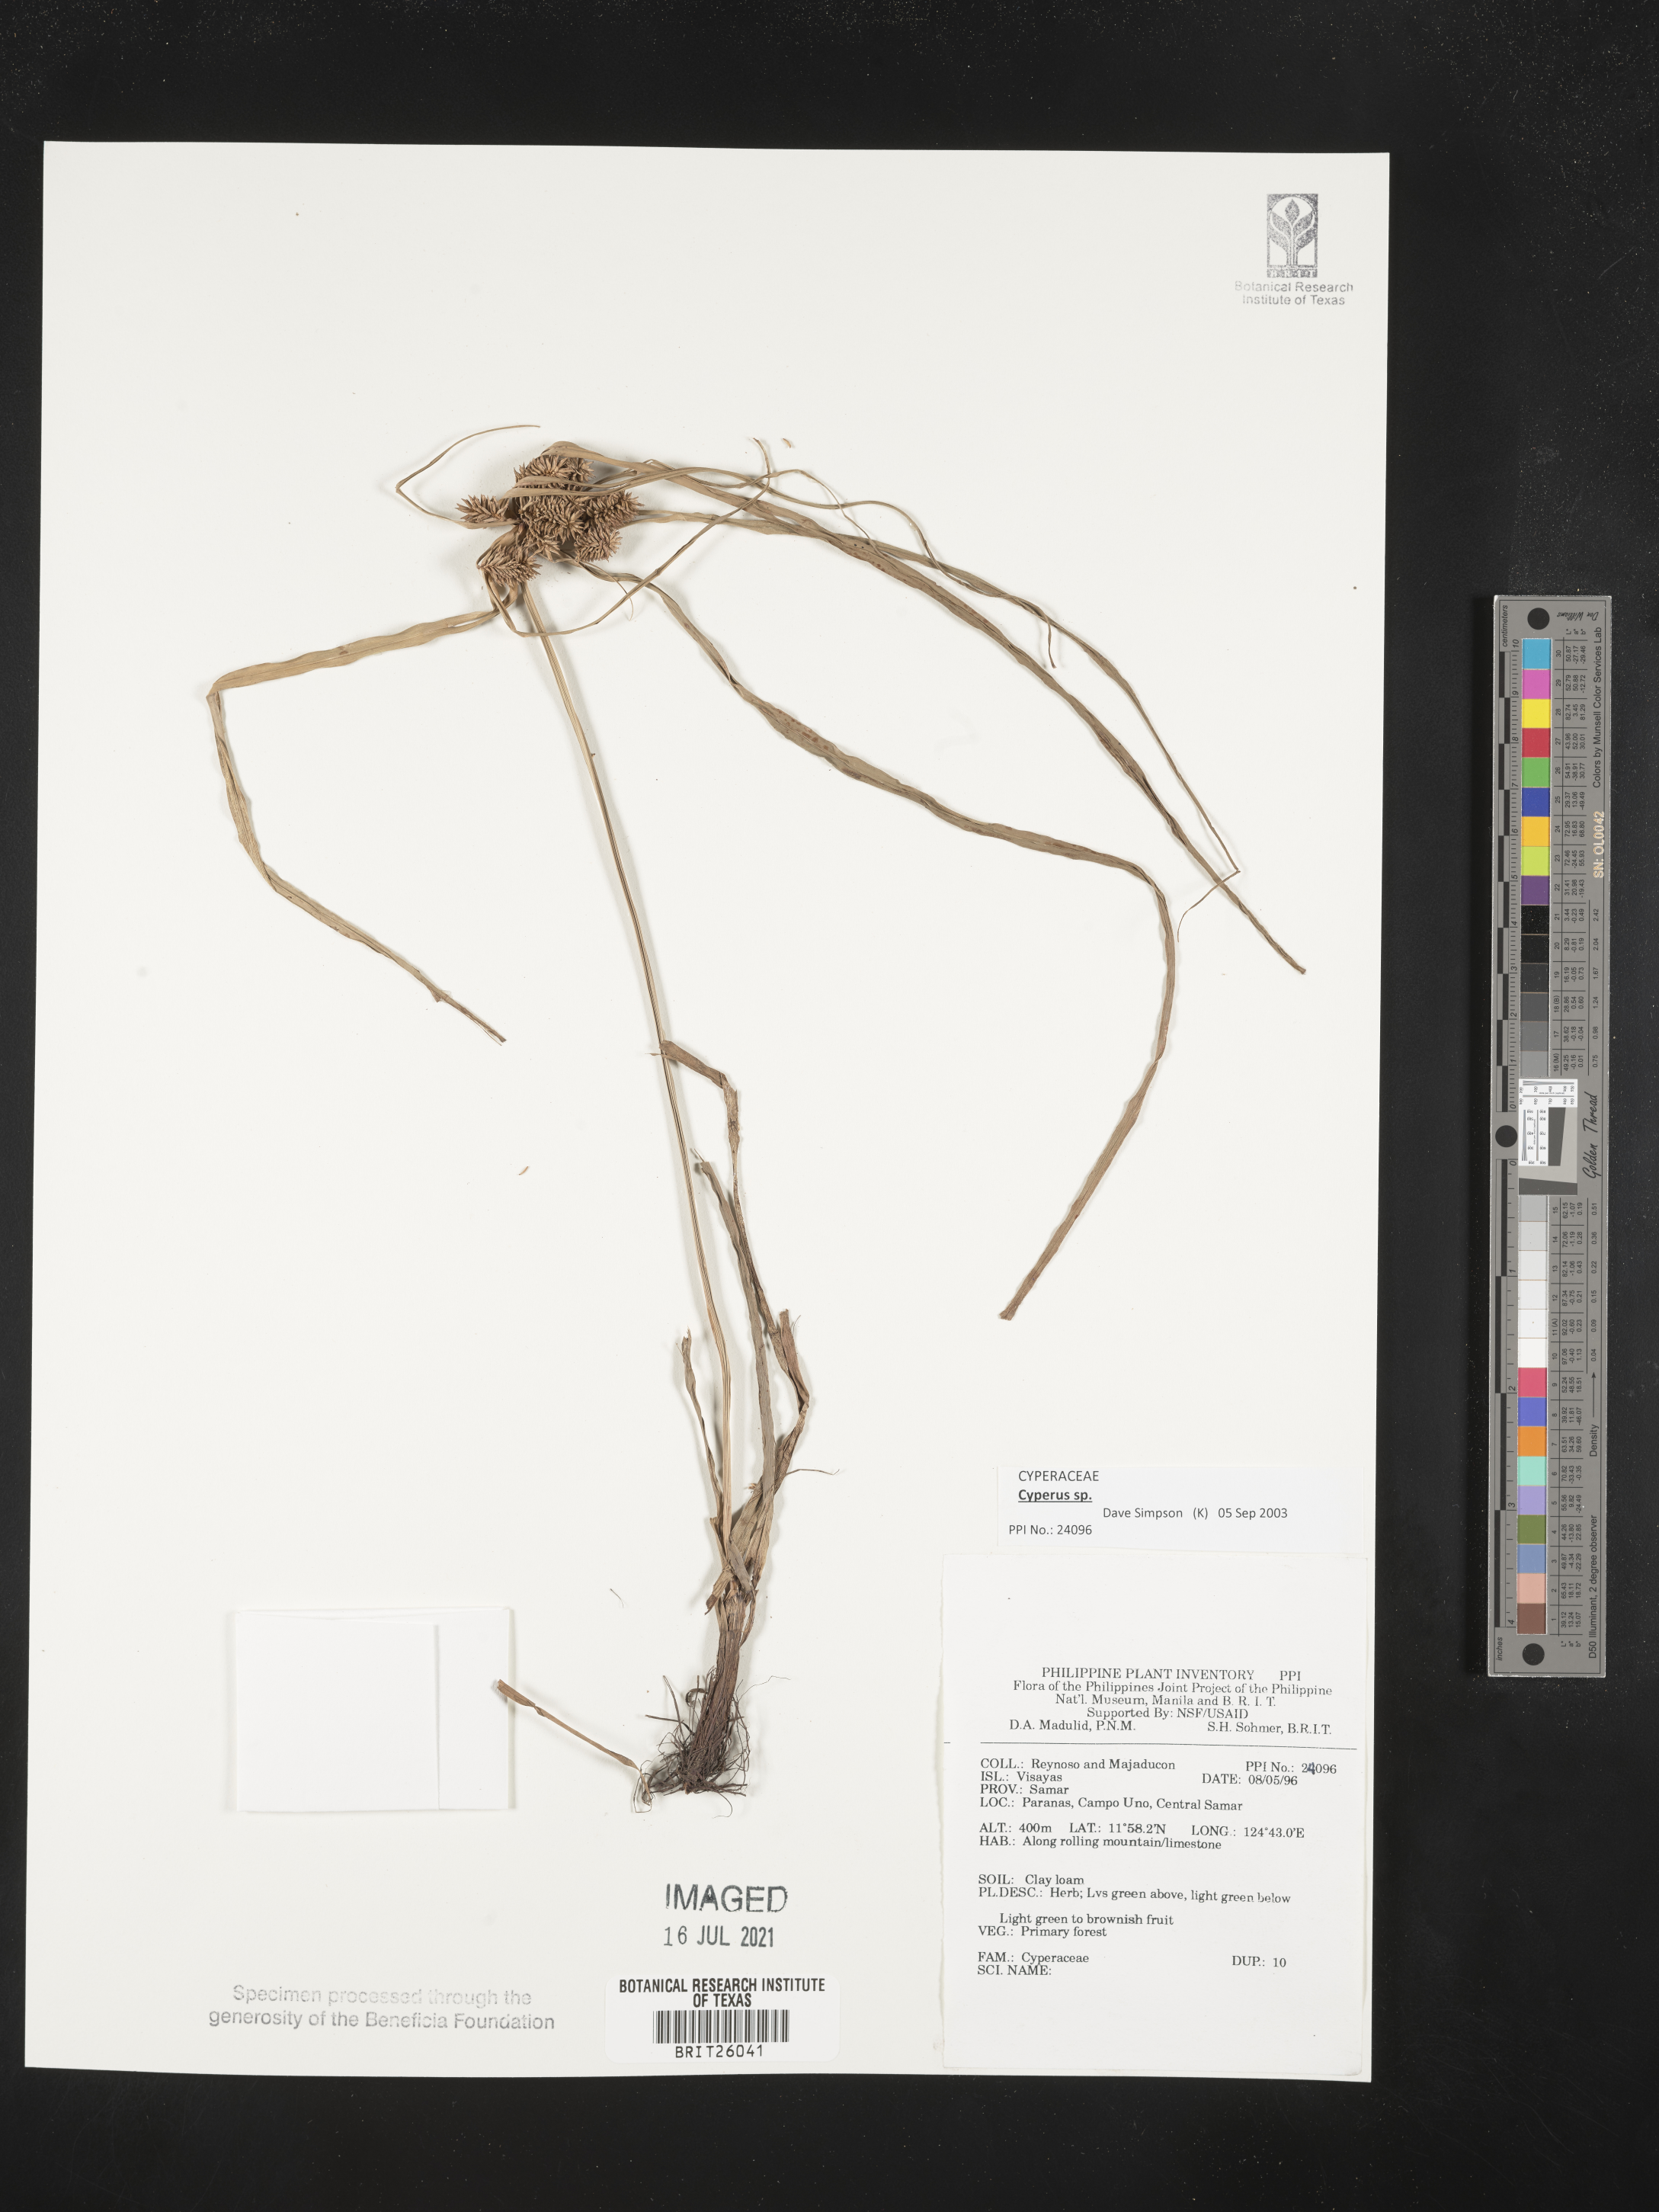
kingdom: Plantae
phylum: Tracheophyta
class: Liliopsida
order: Poales
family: Cyperaceae
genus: Cyperus
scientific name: Cyperus
